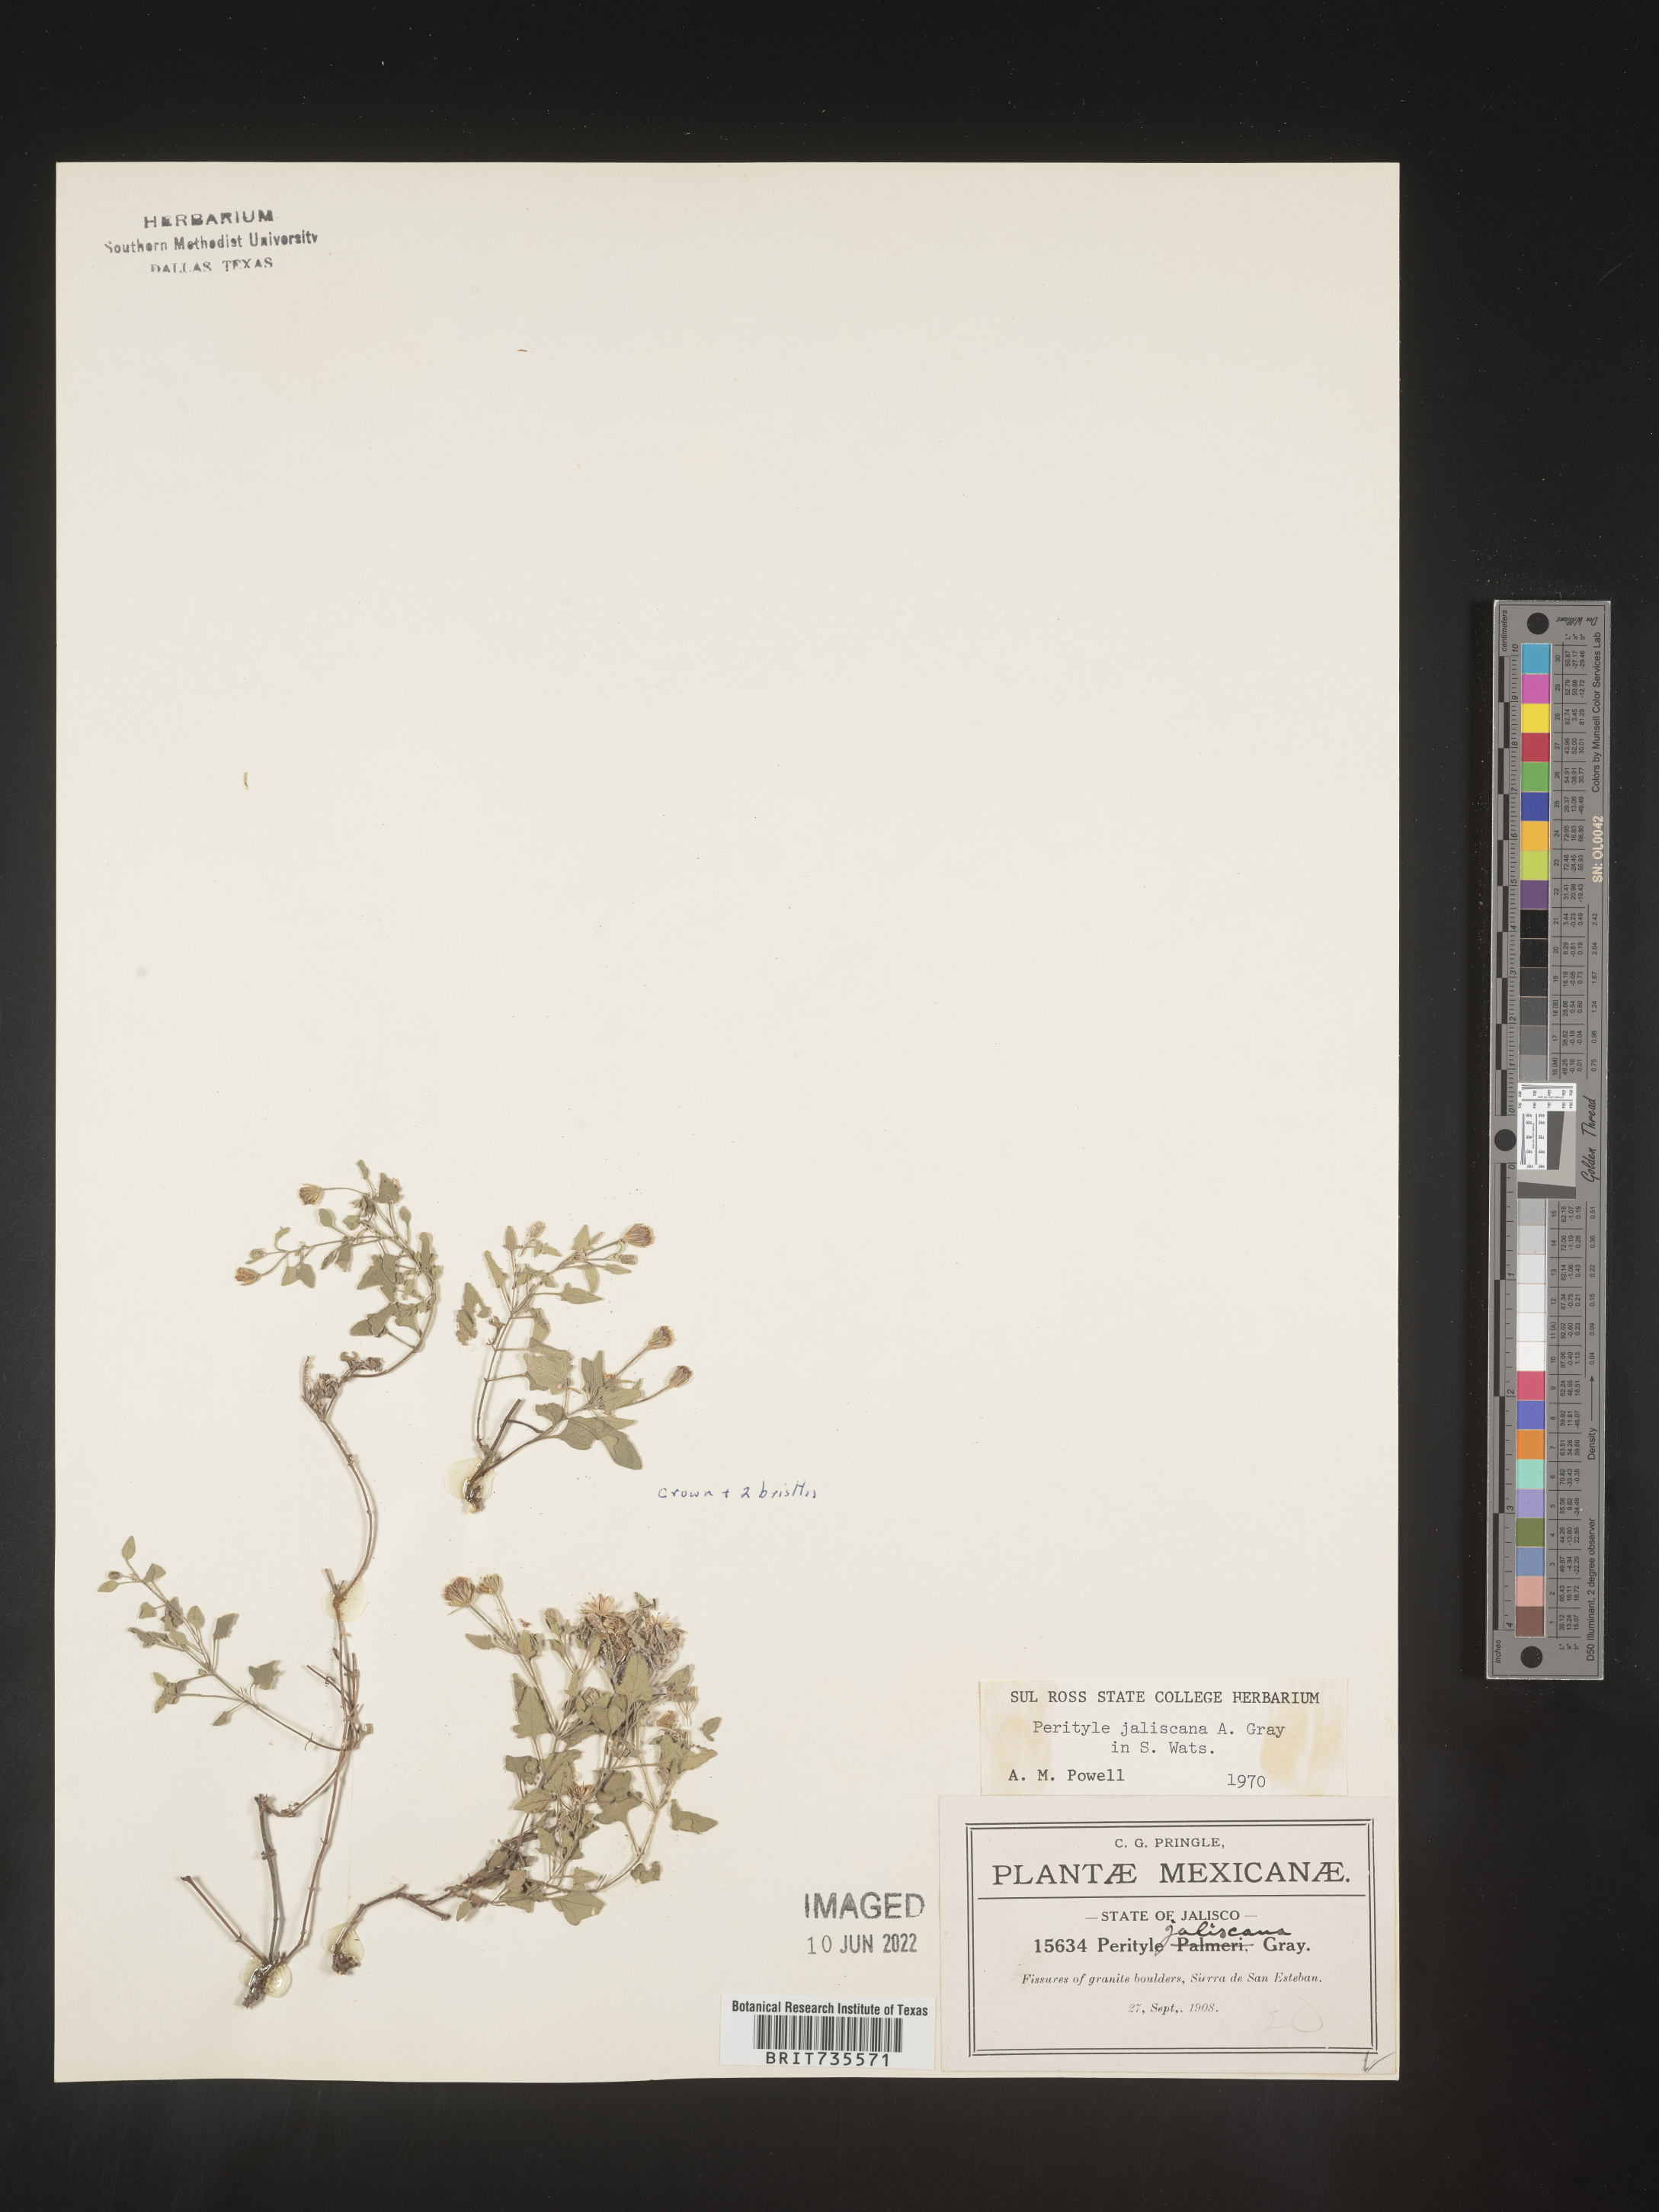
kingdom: Plantae
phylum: Tracheophyta
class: Magnoliopsida
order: Asterales
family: Asteraceae
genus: Perityle
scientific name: Perityle
